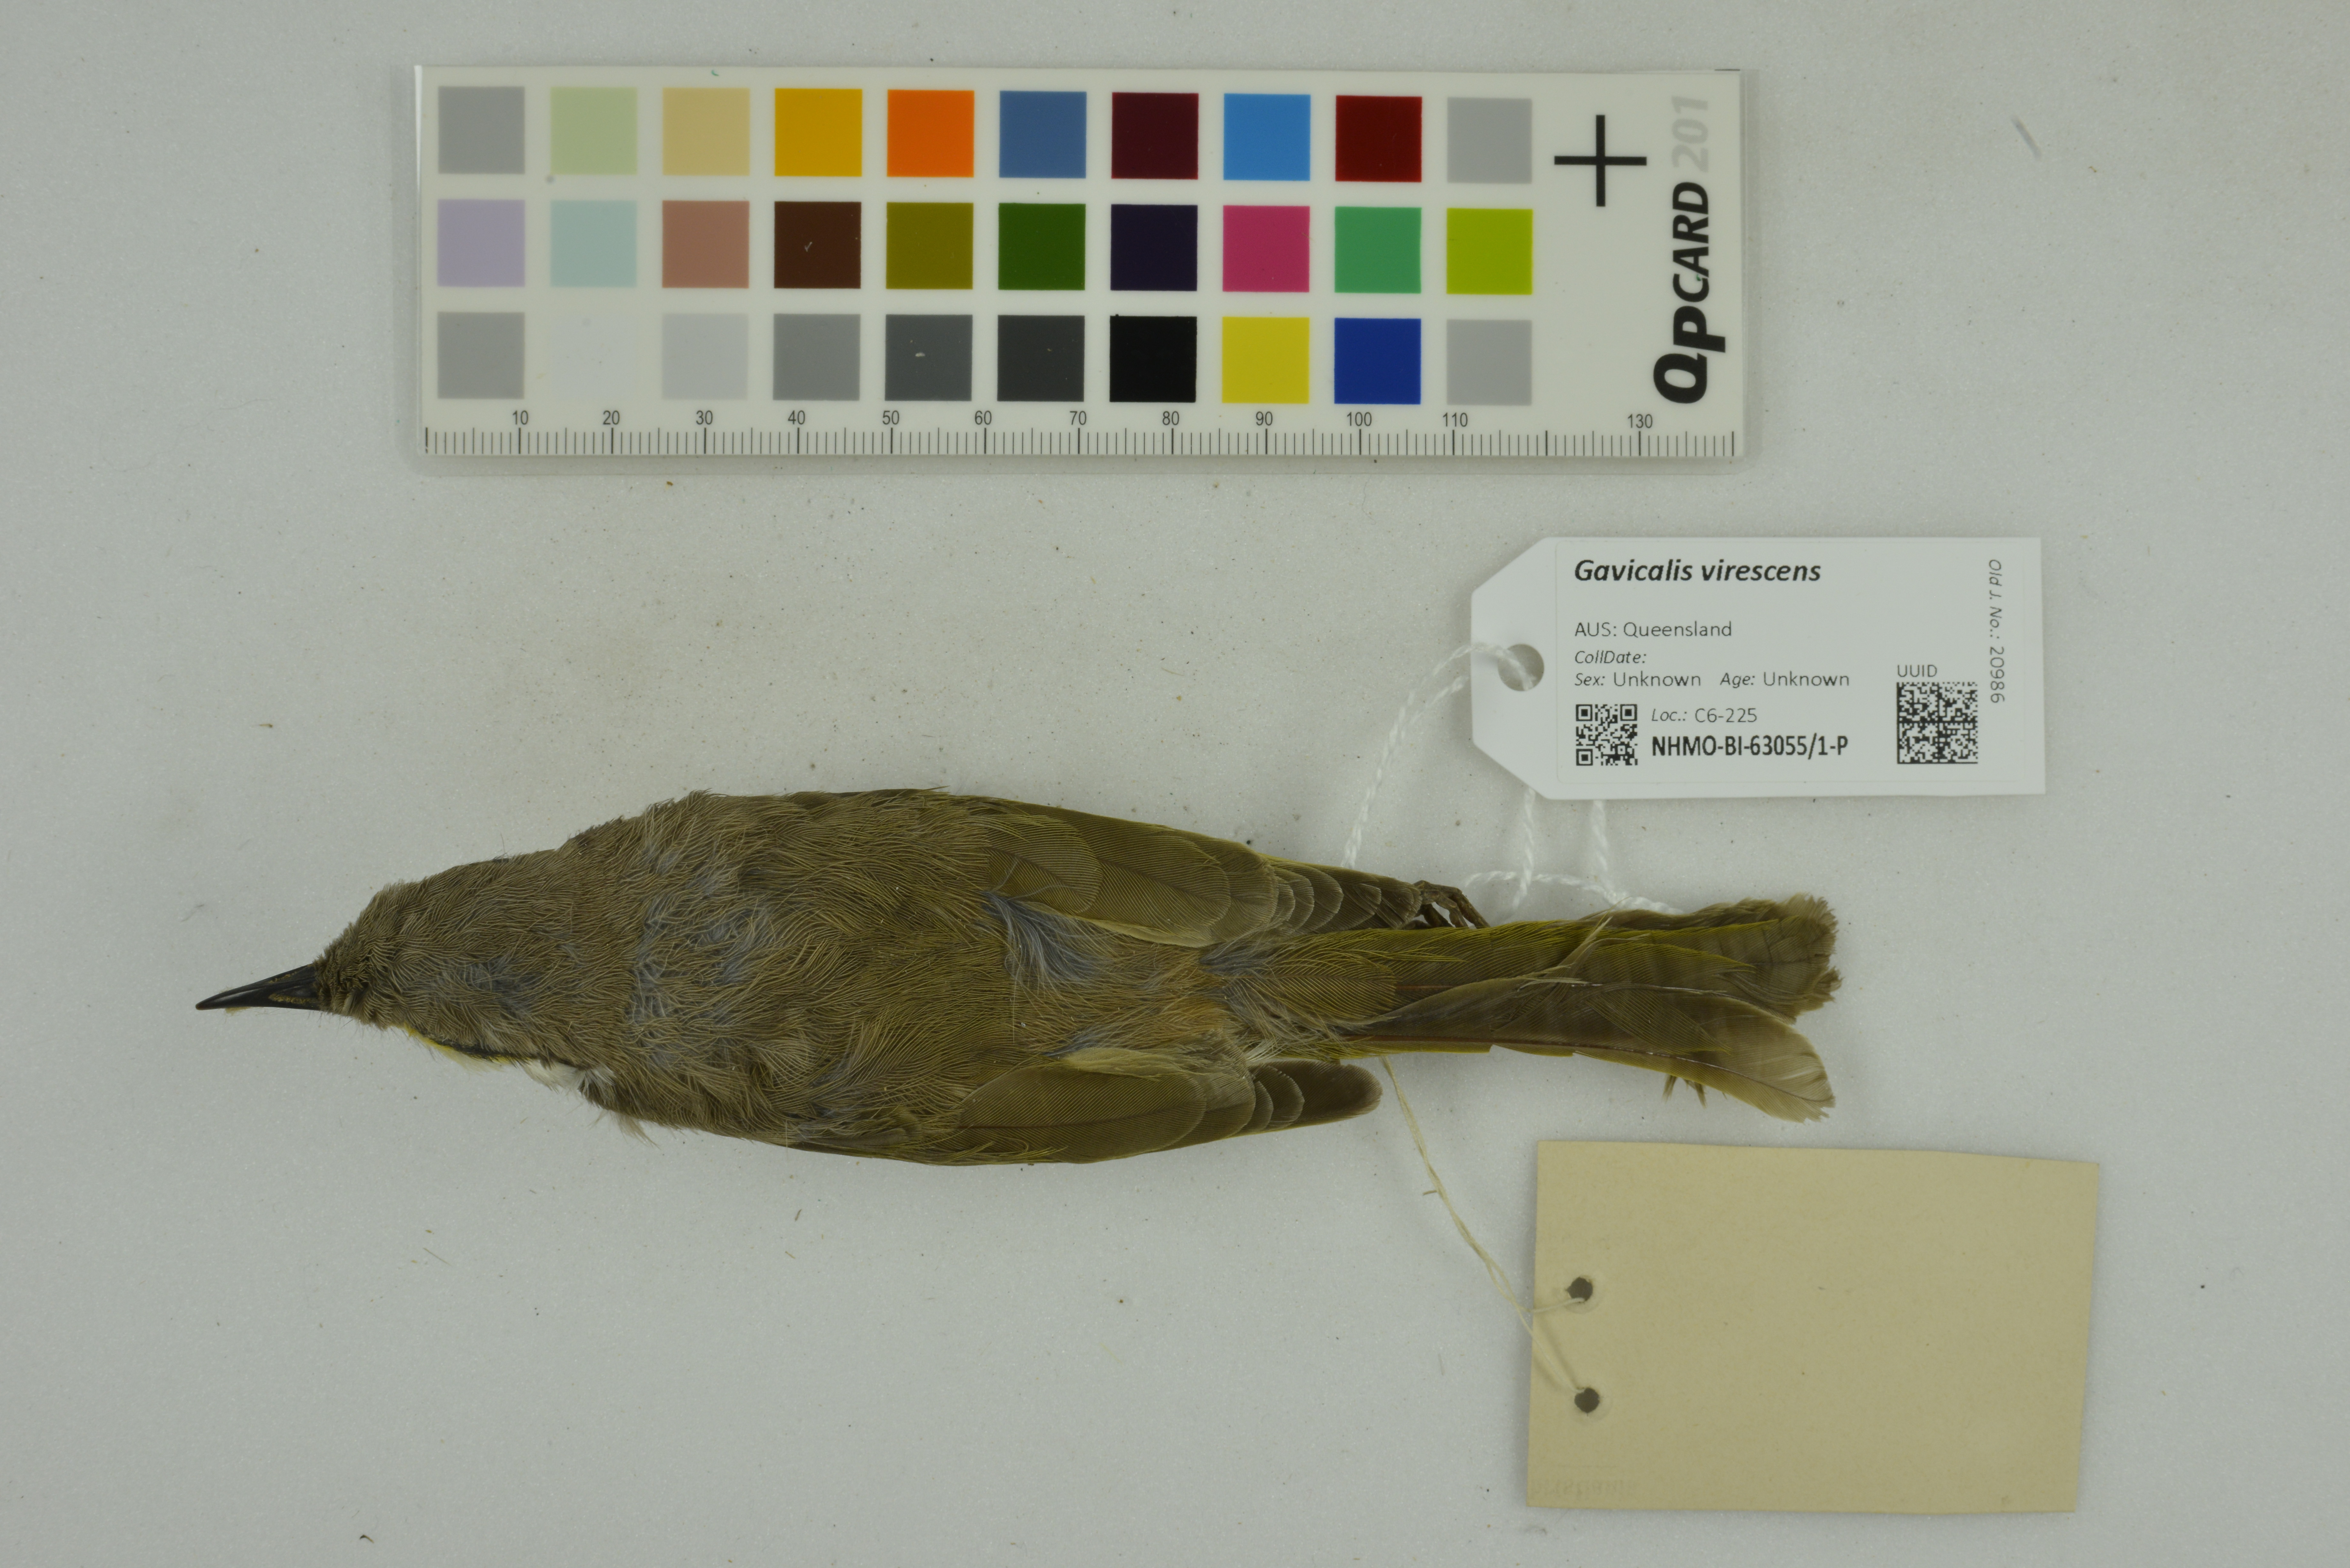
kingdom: Animalia
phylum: Chordata
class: Aves
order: Passeriformes
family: Meliphagidae
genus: Gavicalis
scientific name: Gavicalis virescens
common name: Singing honeyeater
